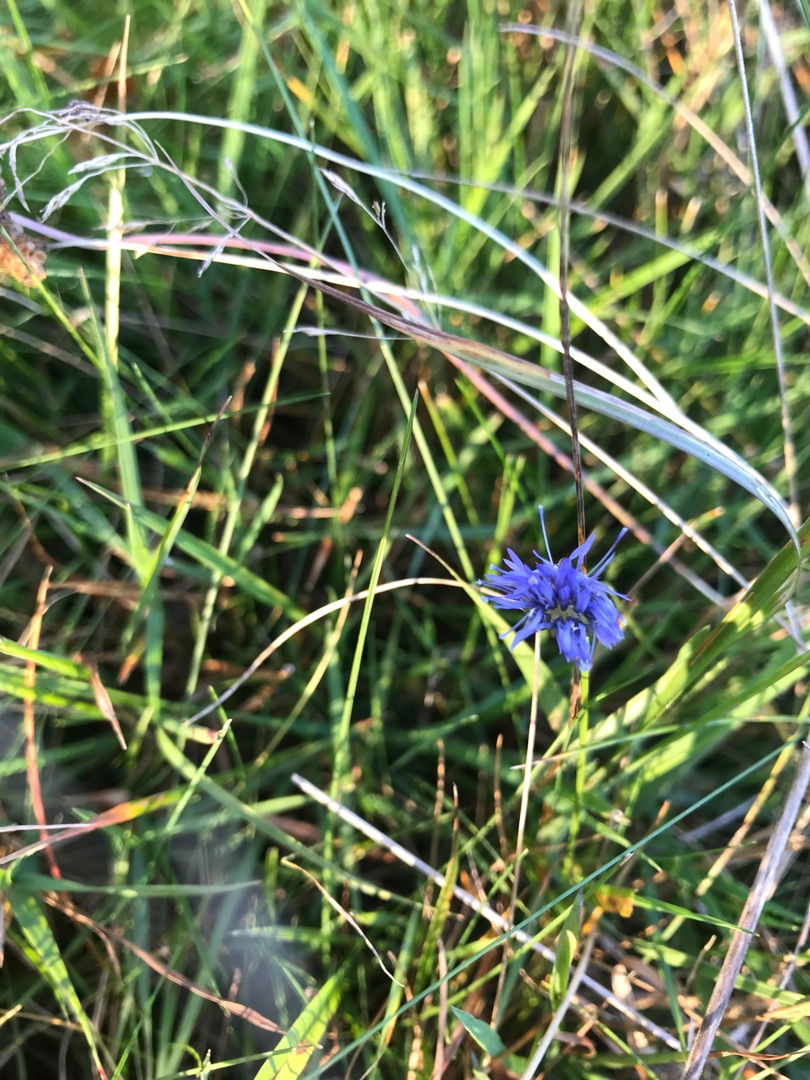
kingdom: Plantae
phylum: Tracheophyta
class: Magnoliopsida
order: Asterales
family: Campanulaceae
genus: Jasione
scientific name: Jasione montana
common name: Blåmunke
